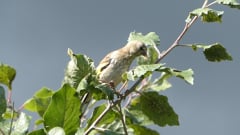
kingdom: Animalia
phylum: Chordata
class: Aves
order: Passeriformes
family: Fringillidae
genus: Carduelis
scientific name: Carduelis carduelis
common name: European goldfinch
